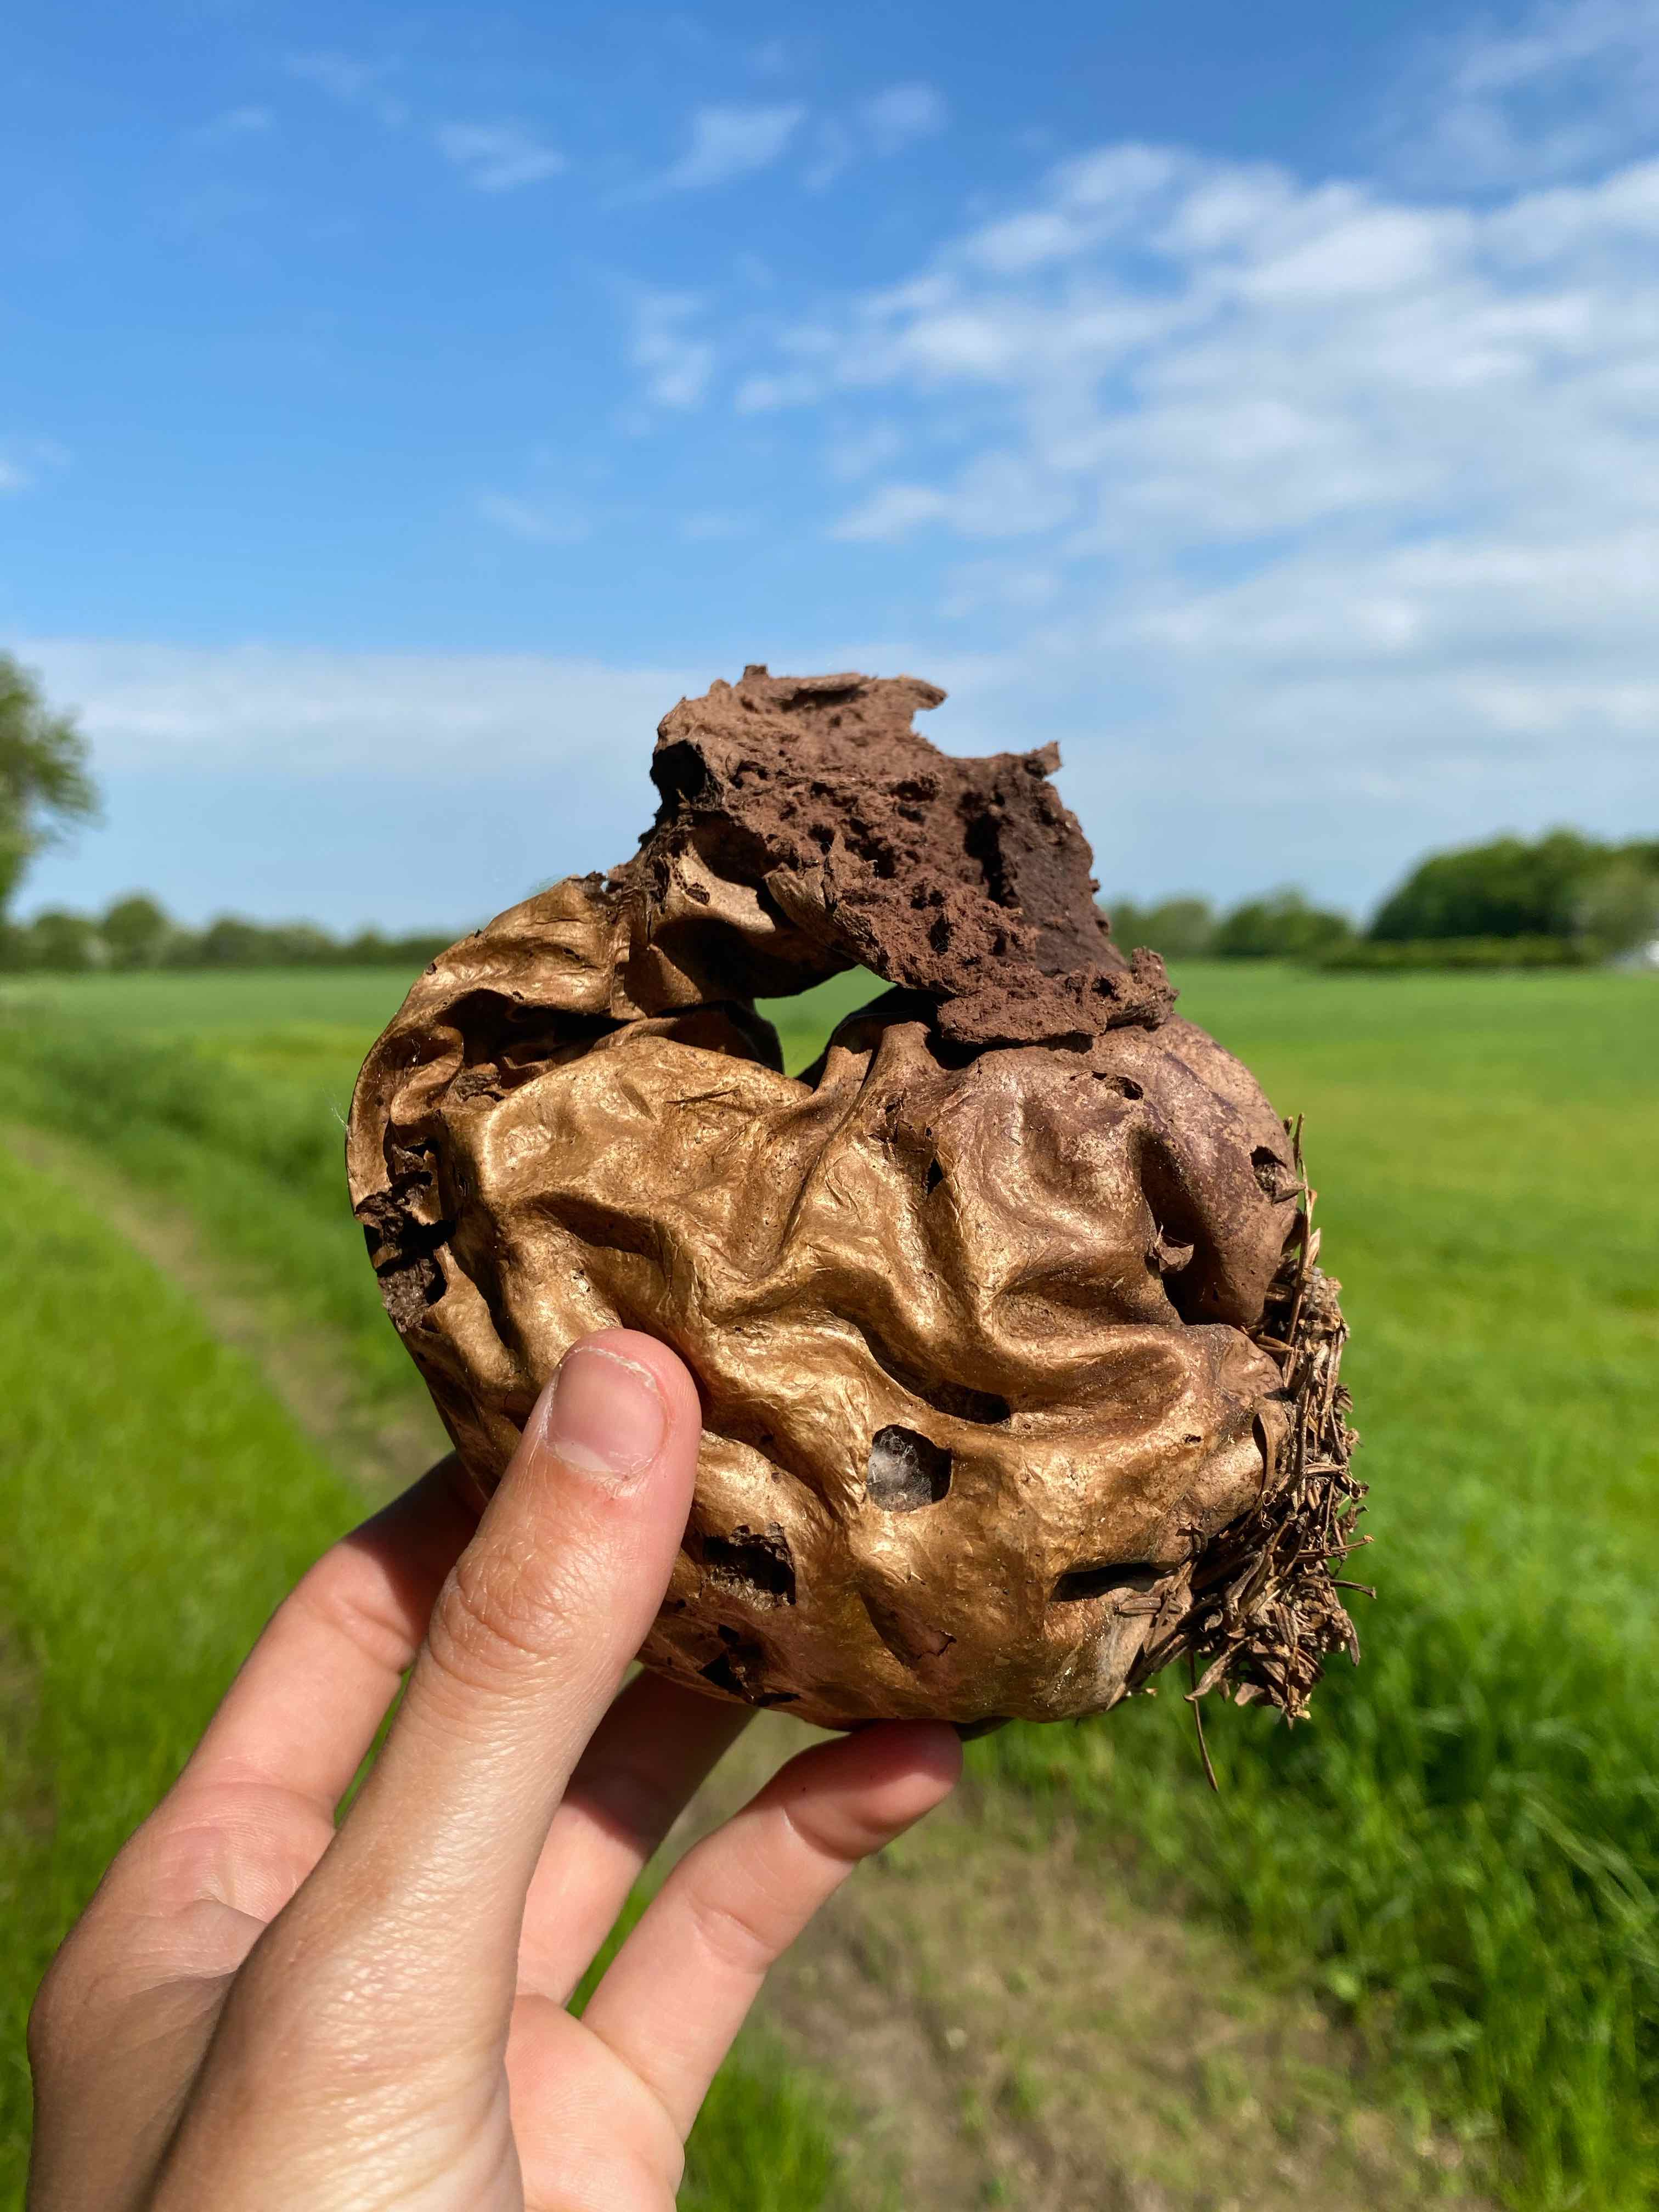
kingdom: Fungi
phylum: Basidiomycota
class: Agaricomycetes
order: Agaricales
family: Agaricaceae
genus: Lycoperdon
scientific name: Lycoperdon
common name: støvbold
